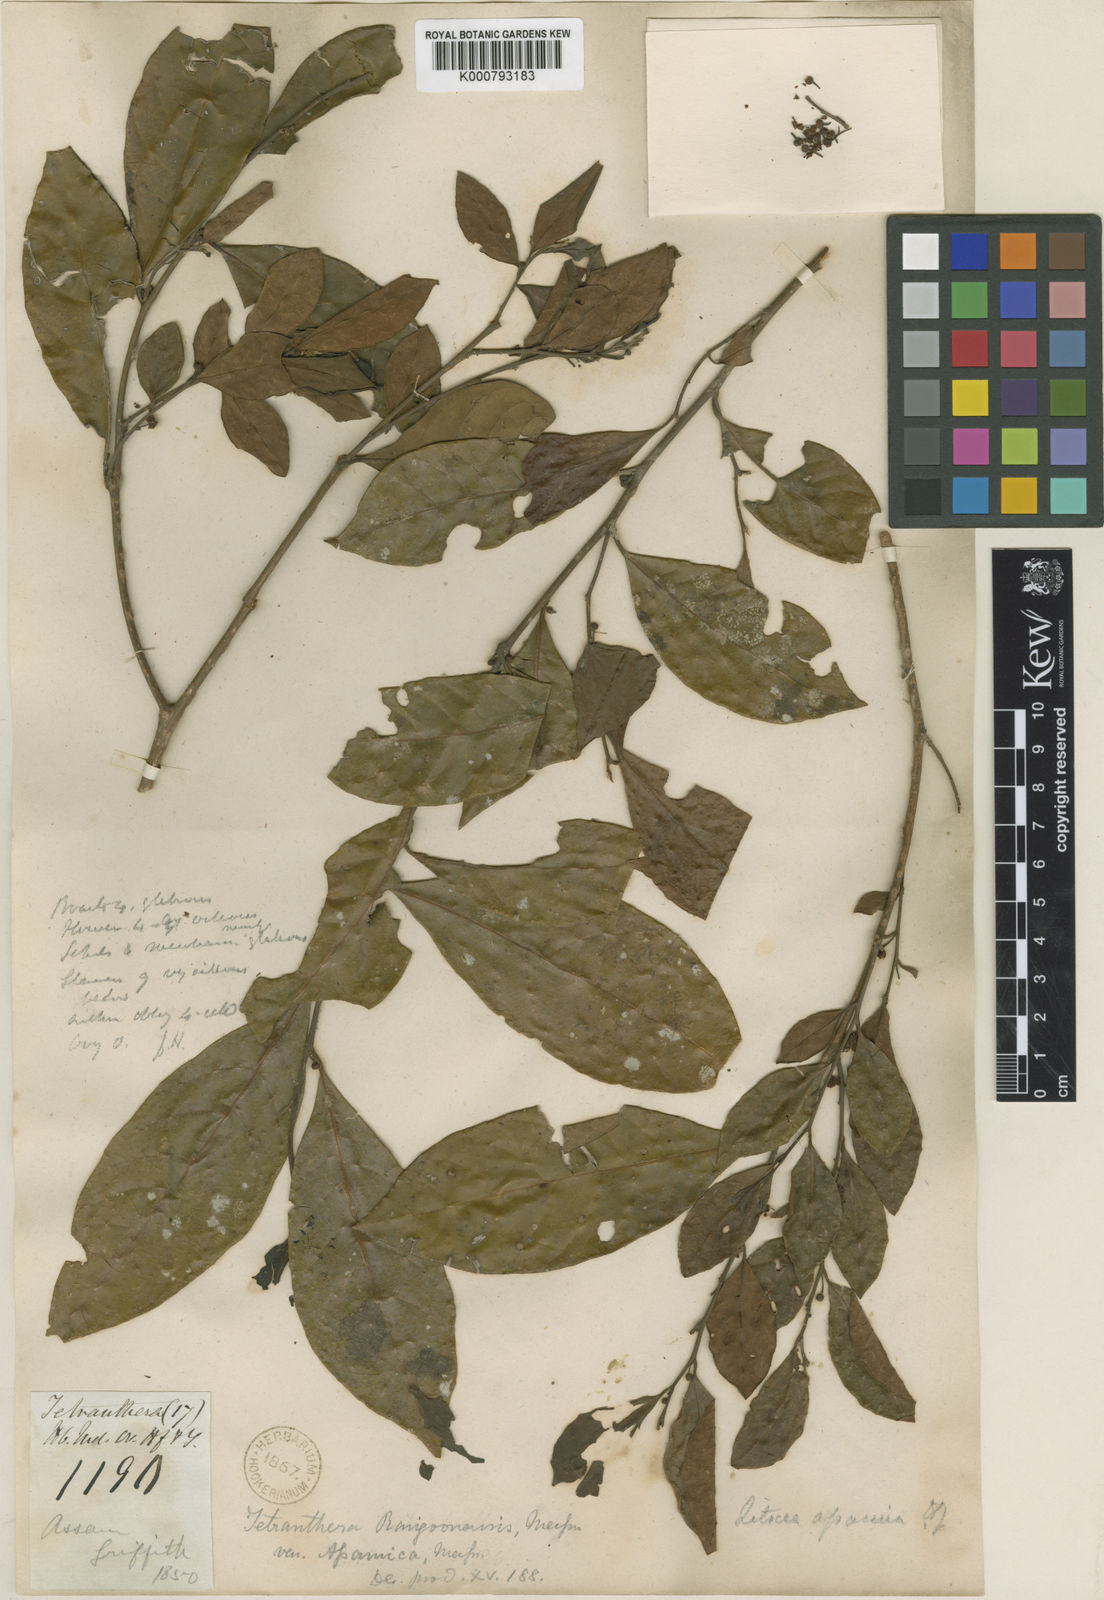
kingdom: Plantae
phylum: Tracheophyta
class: Magnoliopsida
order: Laurales
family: Lauraceae
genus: Litsea
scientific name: Litsea rangoonensis
